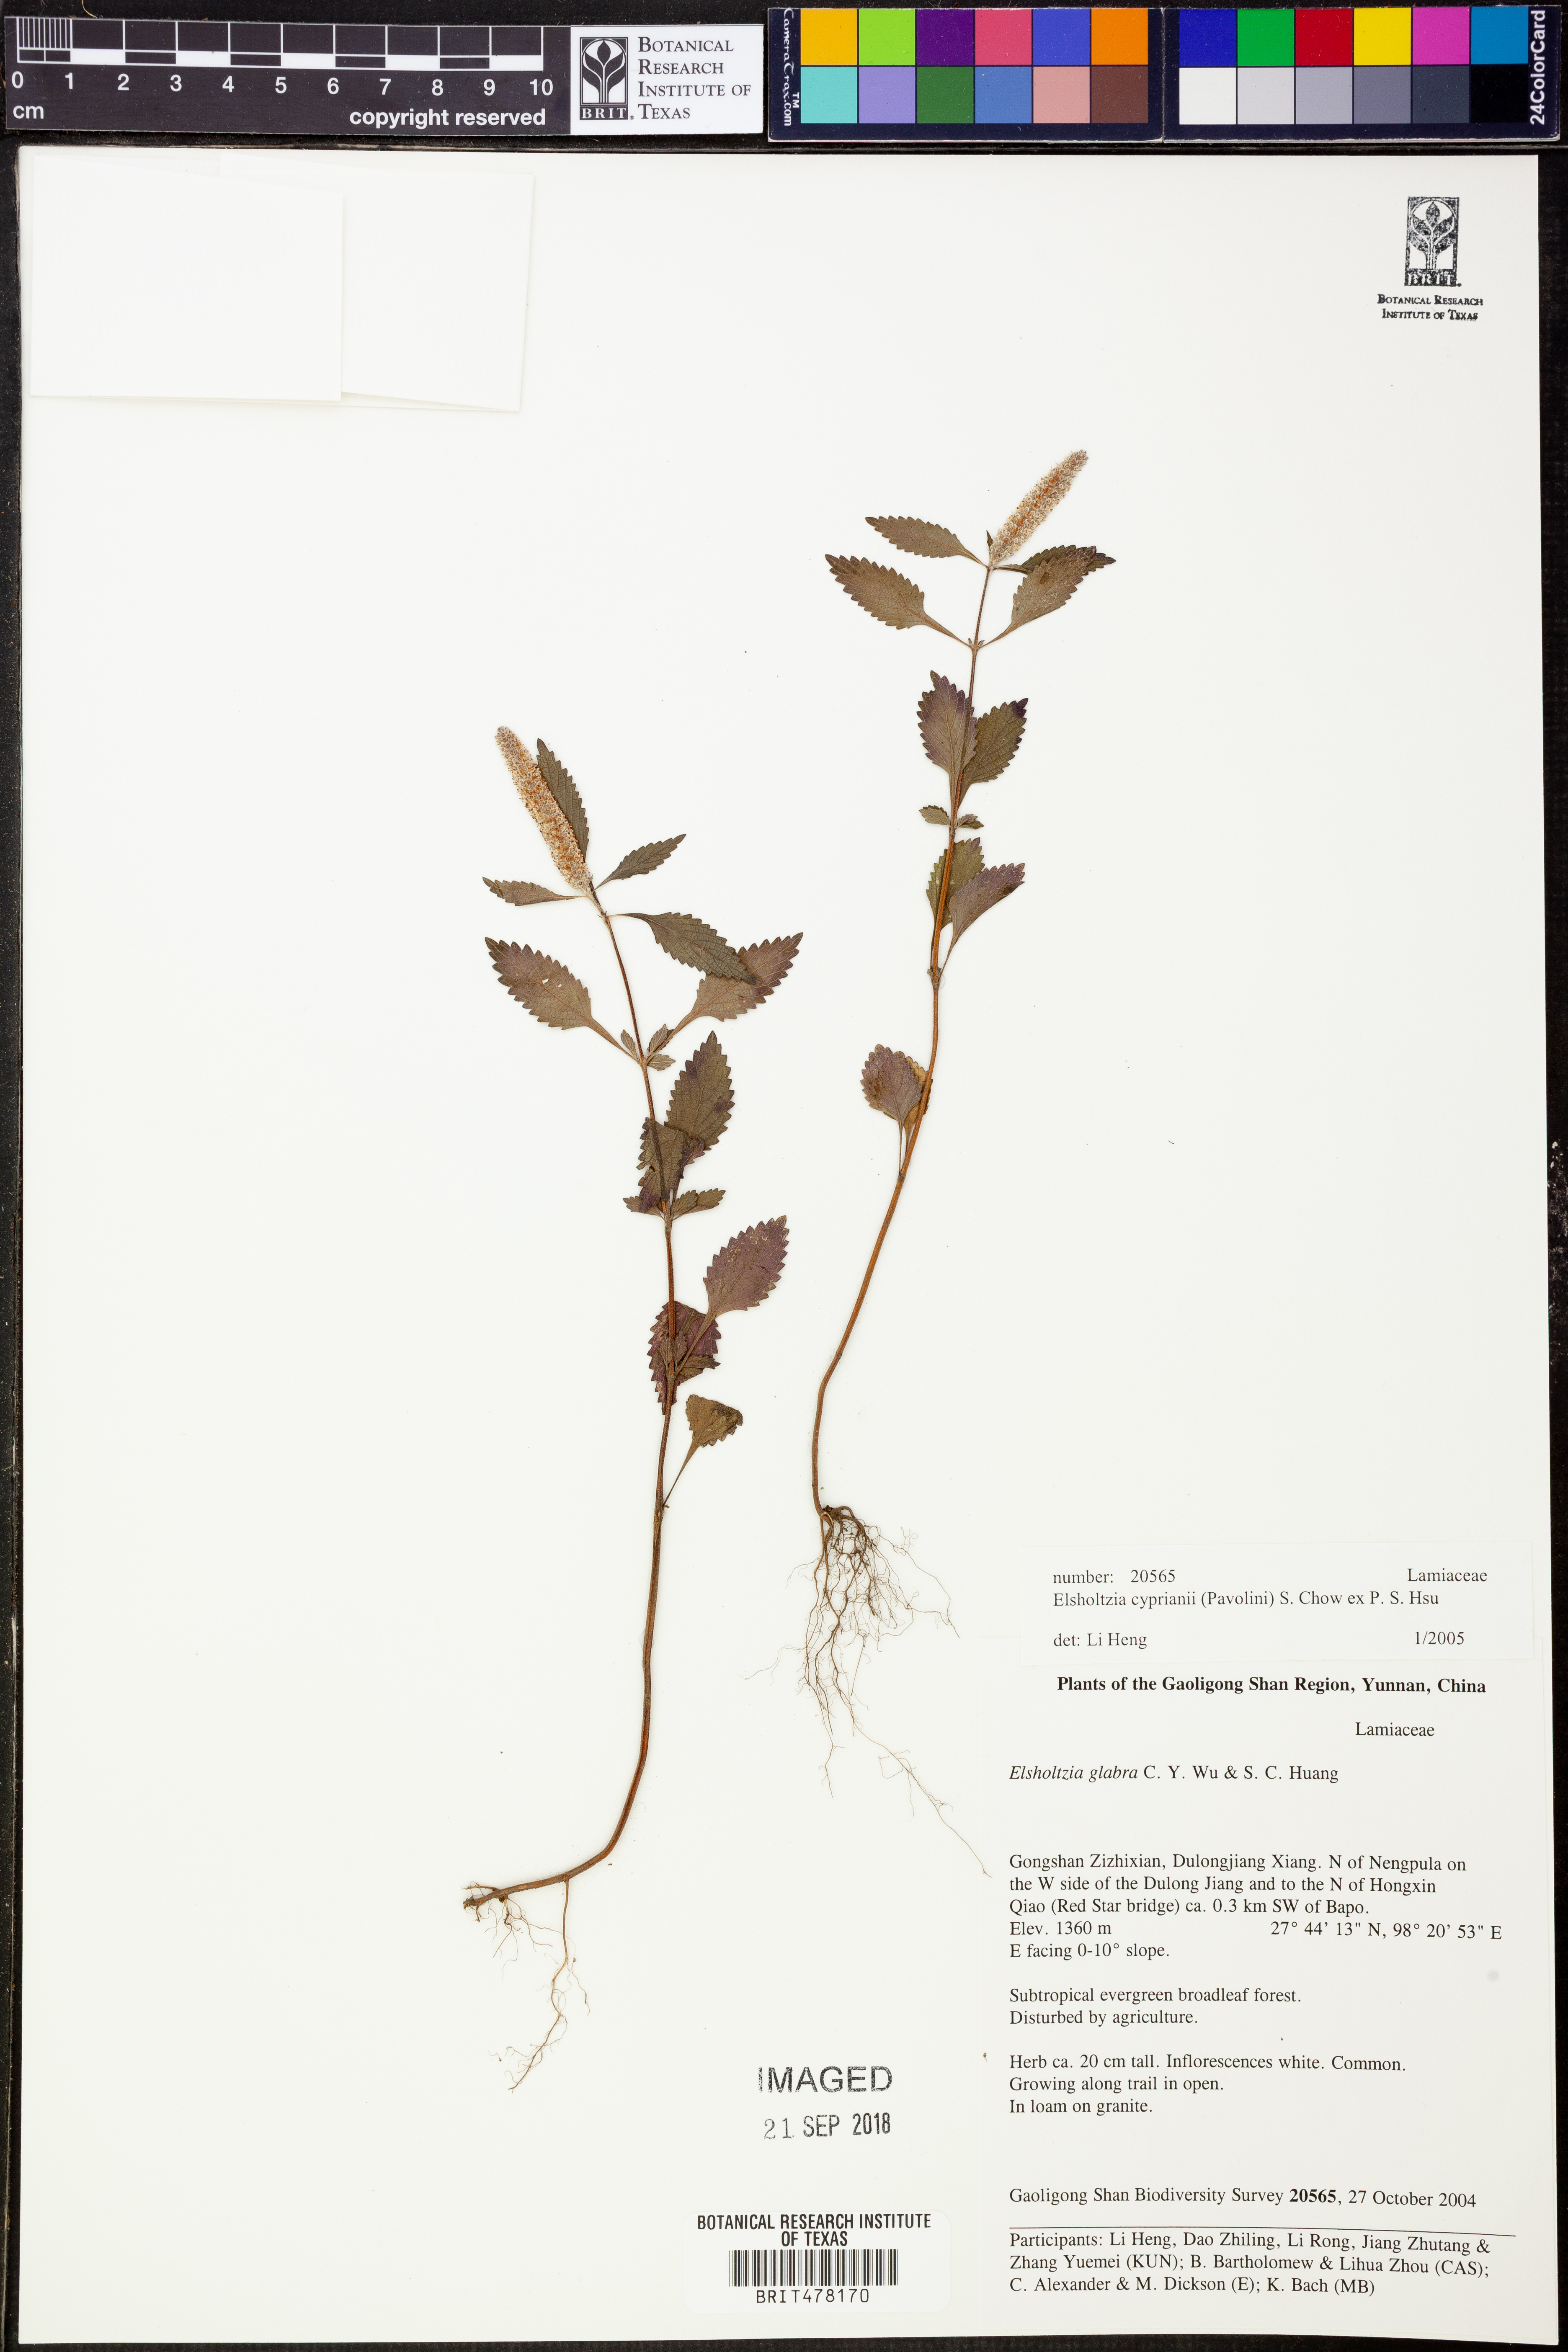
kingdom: Plantae
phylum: Tracheophyta
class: Magnoliopsida
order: Lamiales
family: Lamiaceae
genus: Elsholtzia
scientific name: Elsholtzia cyprianii
